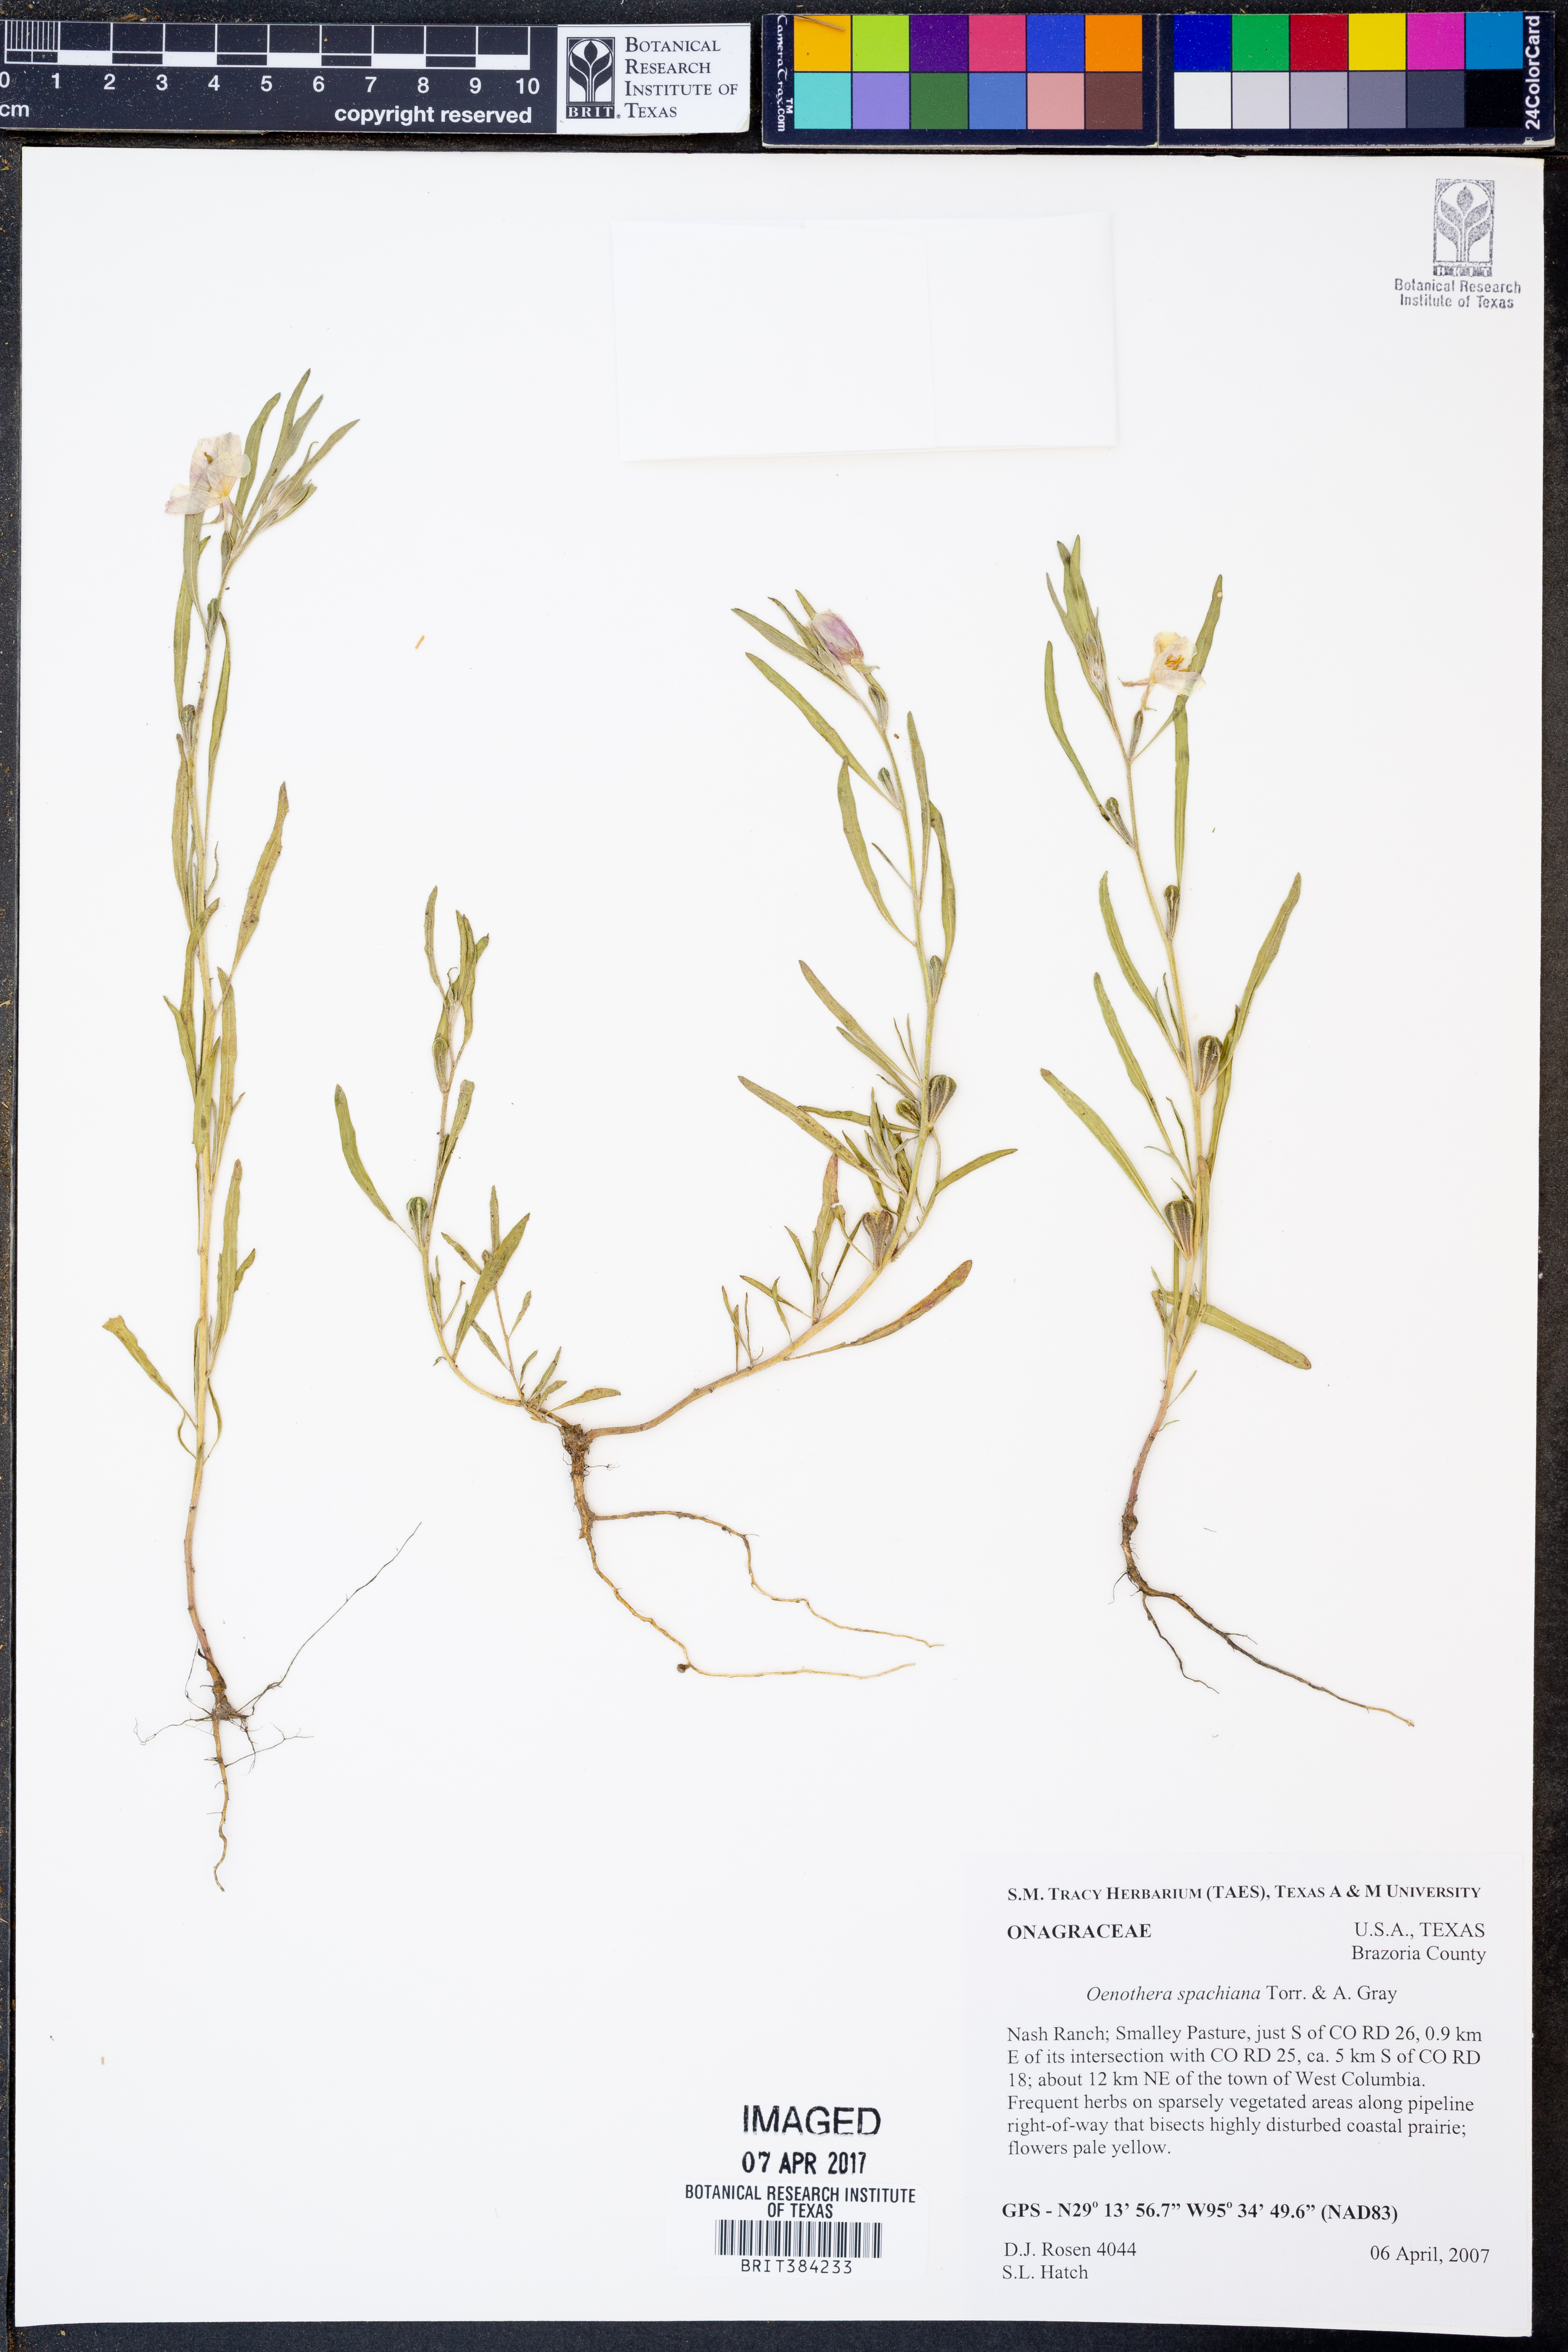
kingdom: Plantae
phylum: Tracheophyta
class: Magnoliopsida
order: Myrtales
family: Onagraceae
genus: Oenothera
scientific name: Oenothera spachiana
